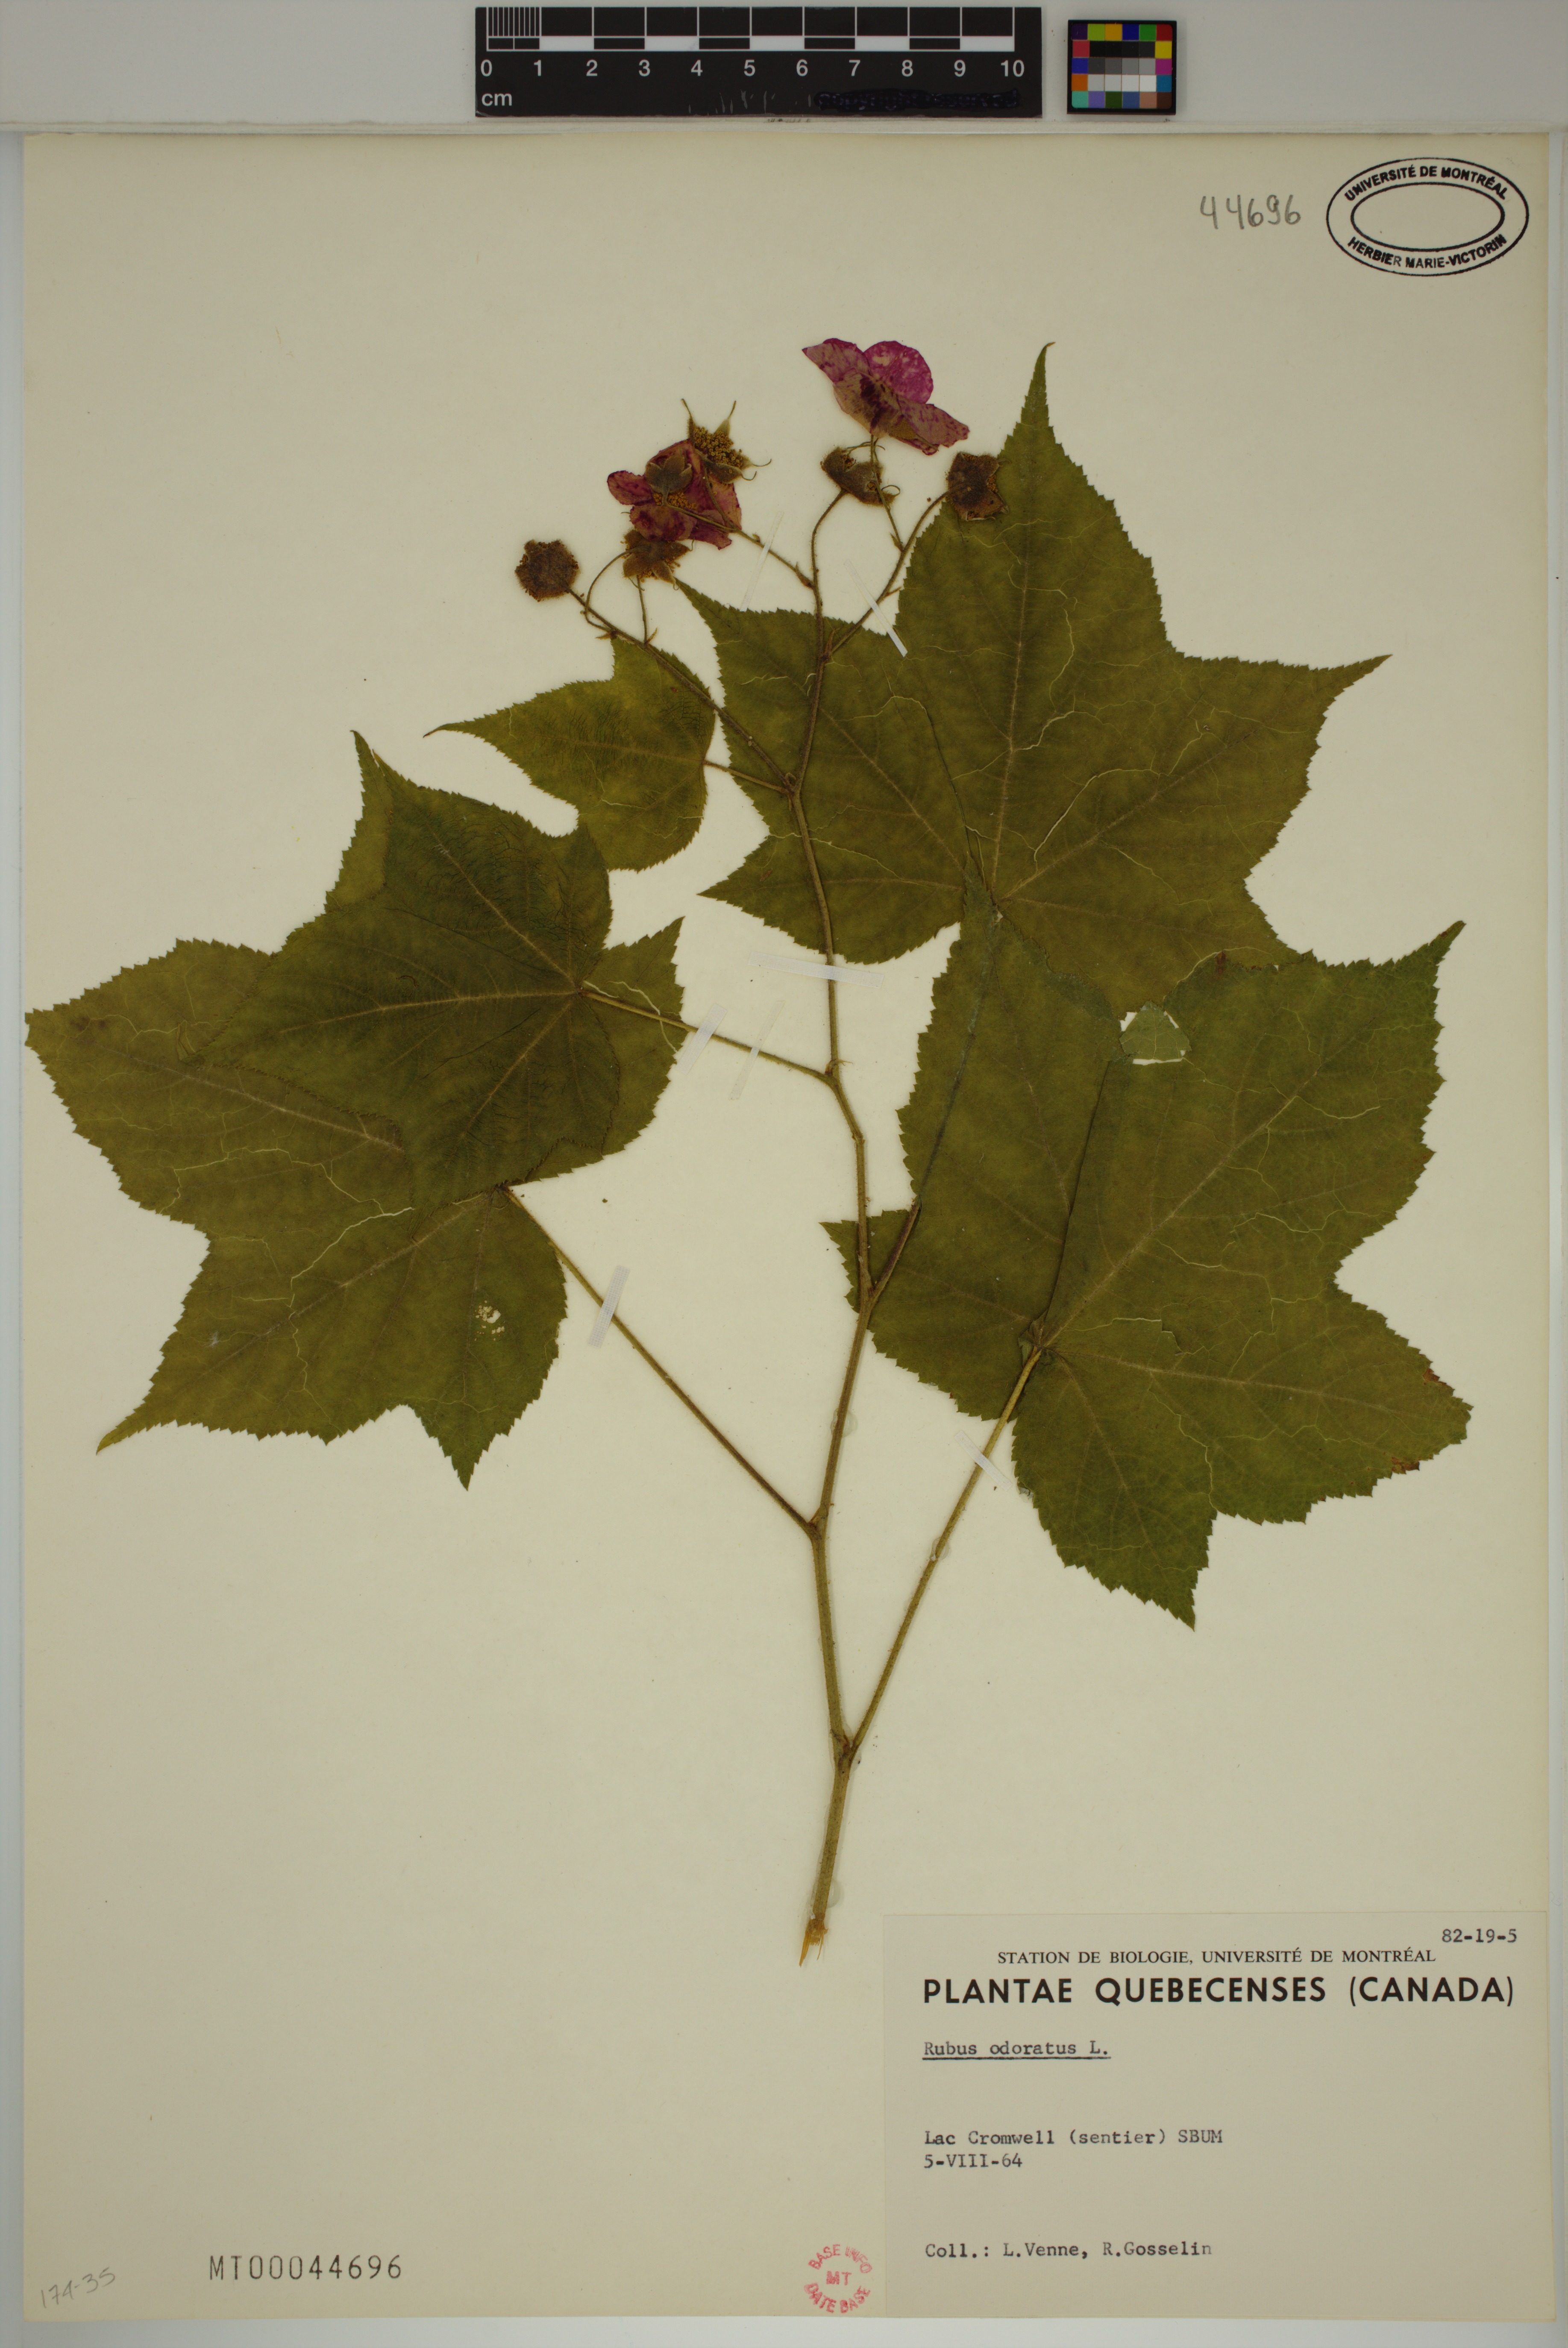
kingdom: Plantae
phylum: Tracheophyta
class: Magnoliopsida
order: Rosales
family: Rosaceae
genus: Rubus
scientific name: Rubus odoratus
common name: Purple-flowered raspberry
